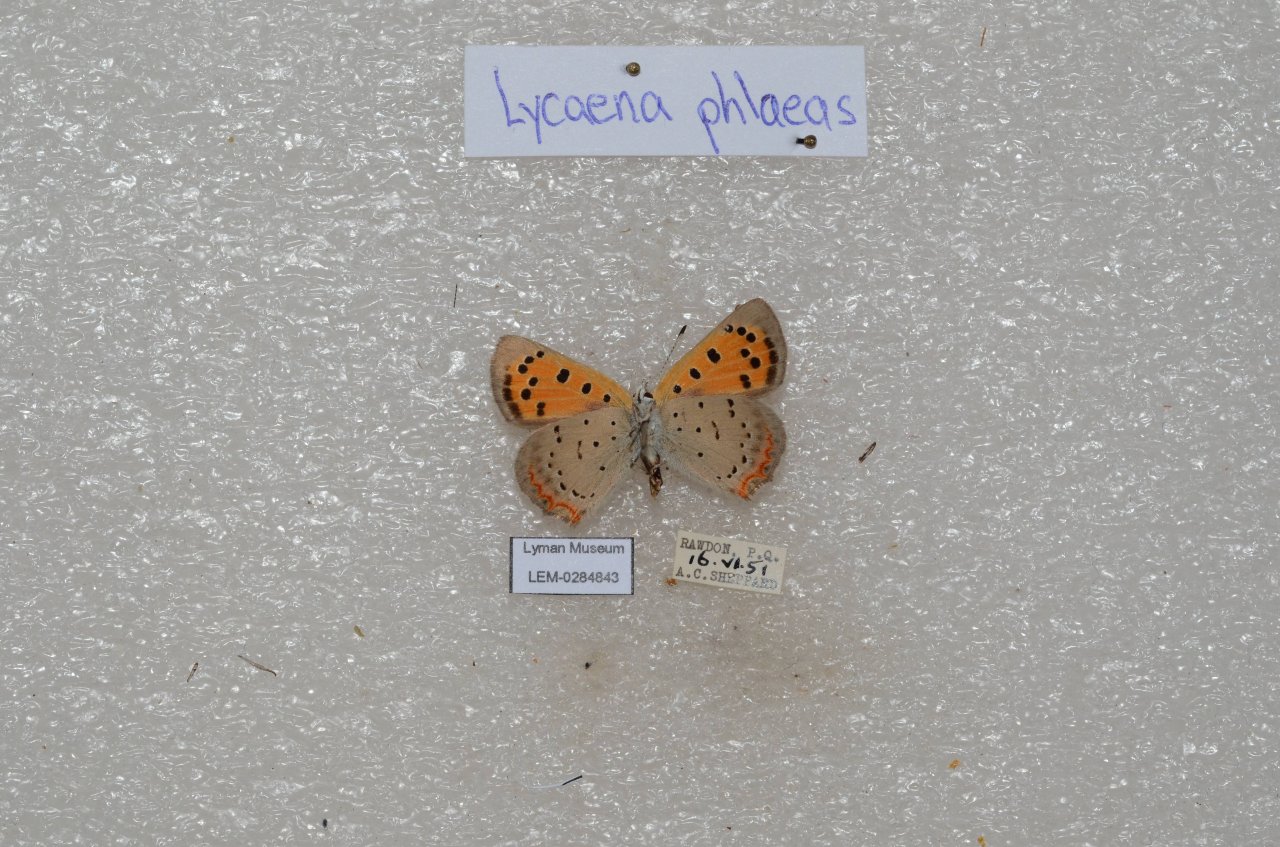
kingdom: Animalia
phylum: Arthropoda
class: Insecta
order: Lepidoptera
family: Lycaenidae
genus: Lycaena
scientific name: Lycaena phlaeas
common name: American Copper
